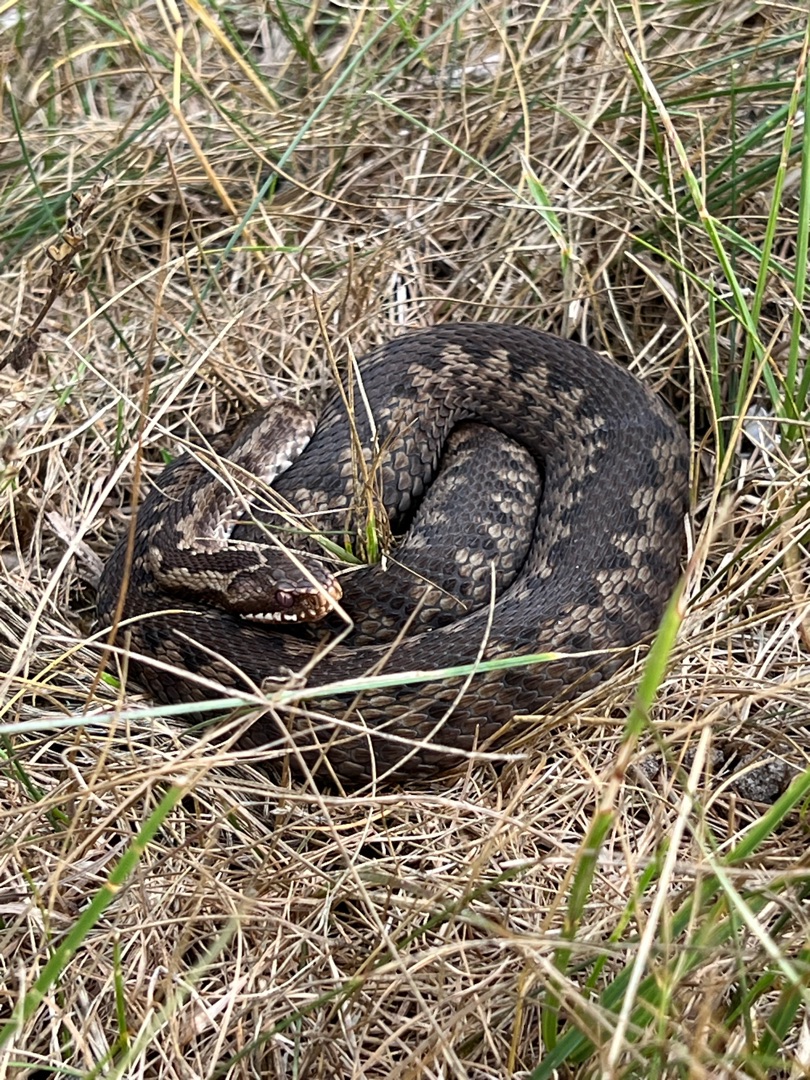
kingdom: Animalia
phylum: Chordata
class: Squamata
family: Viperidae
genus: Vipera
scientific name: Vipera berus
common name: Hugorm
